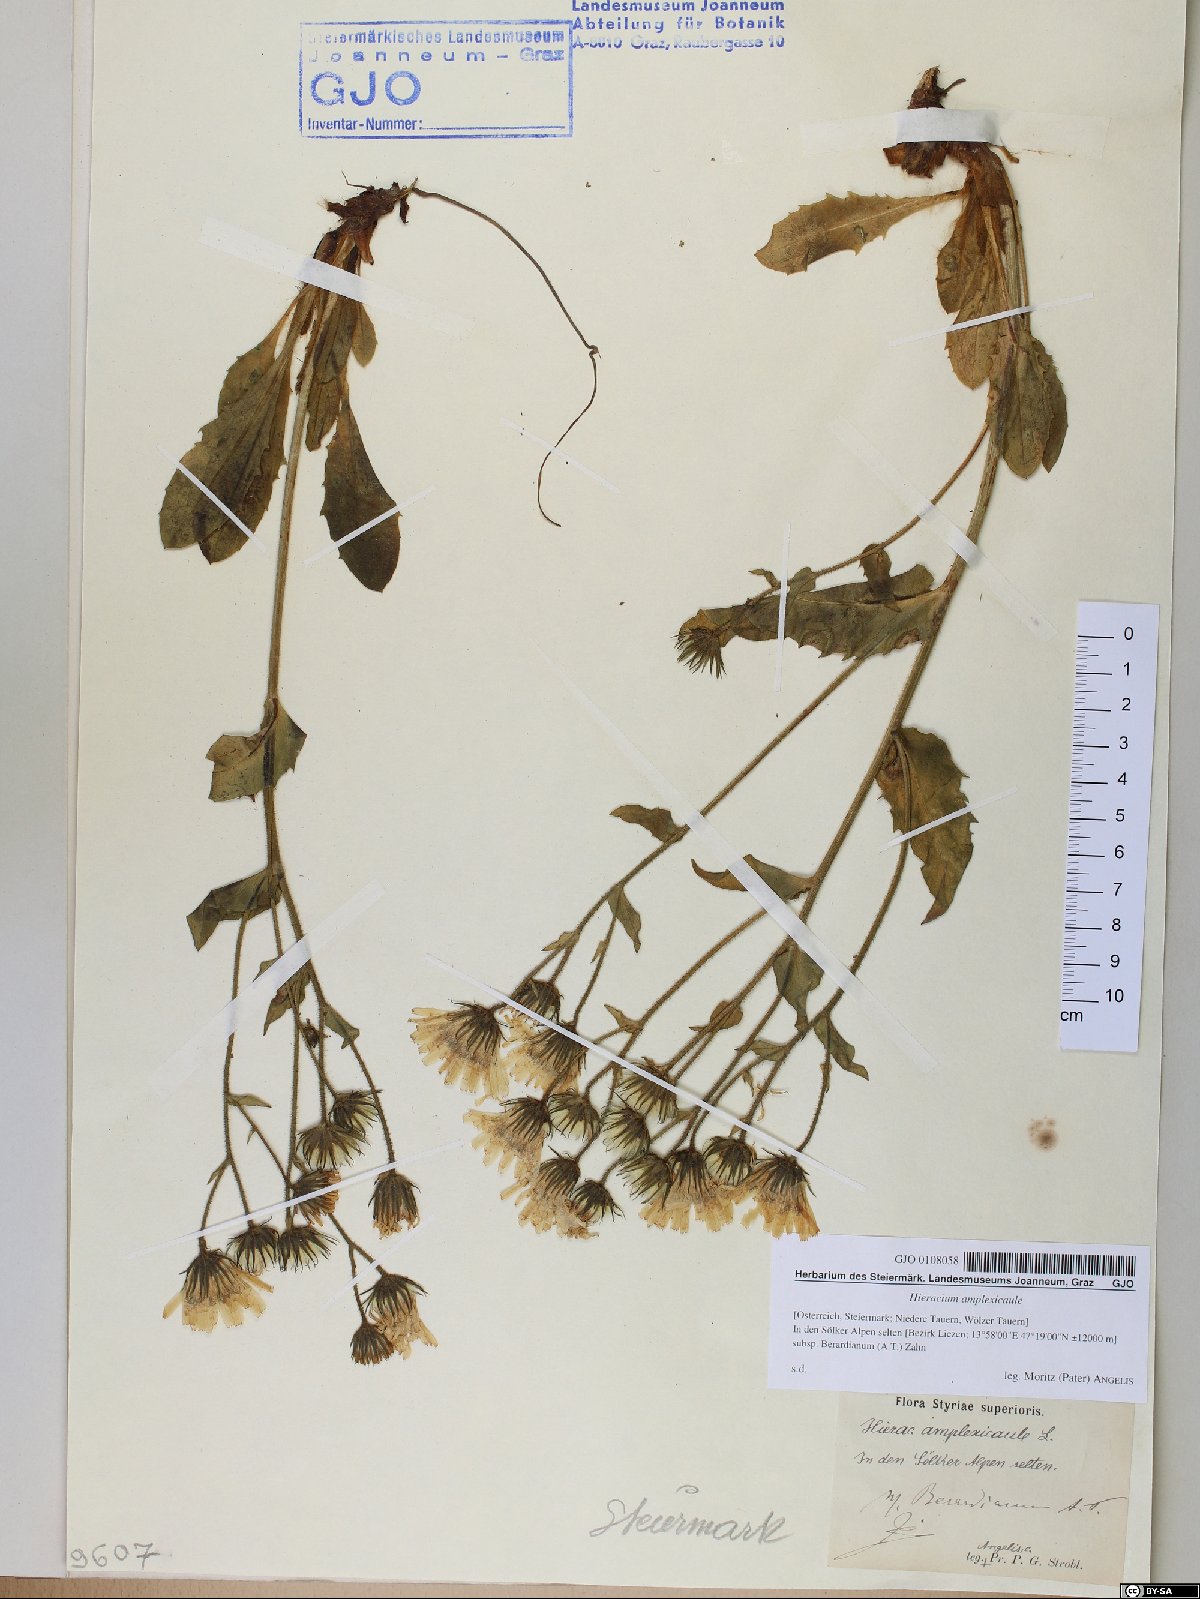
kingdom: Plantae
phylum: Tracheophyta
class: Magnoliopsida
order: Asterales
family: Asteraceae
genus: Hieracium
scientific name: Hieracium amplexicaule
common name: Sticky hawkweed
